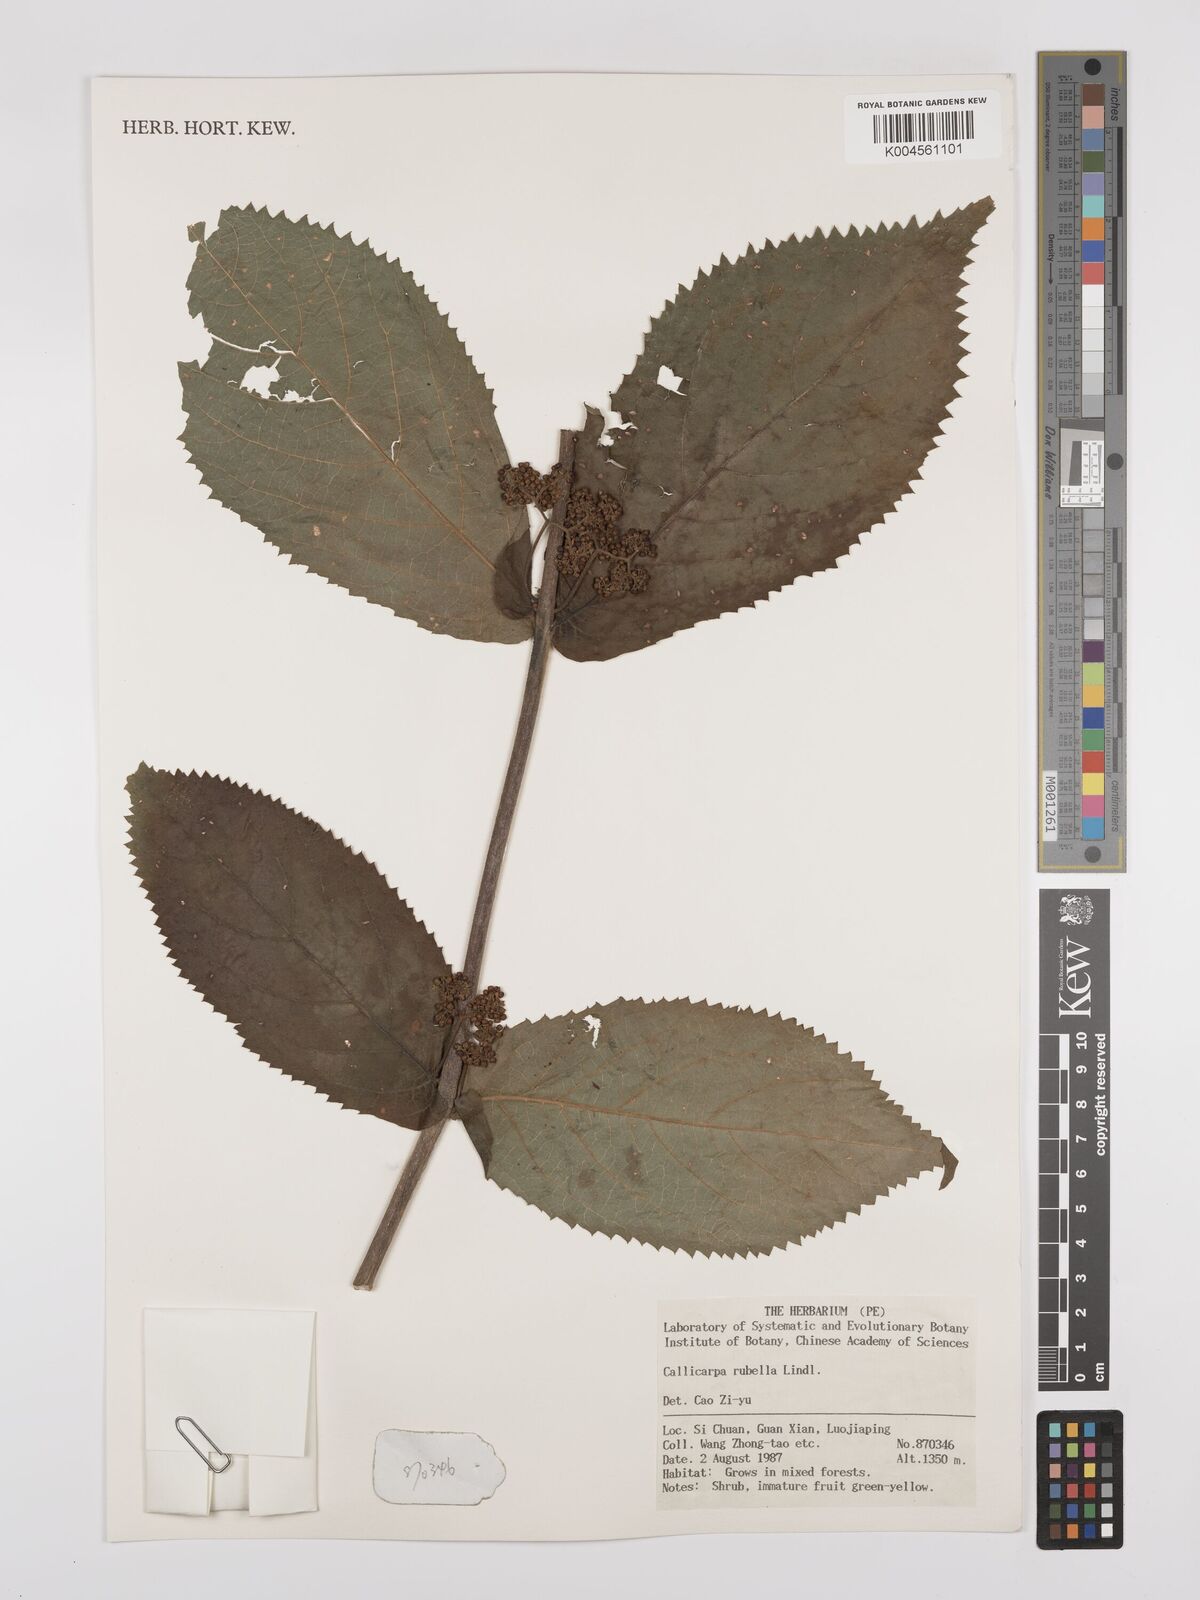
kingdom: Plantae
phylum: Tracheophyta
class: Magnoliopsida
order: Lamiales
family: Lamiaceae
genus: Callicarpa
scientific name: Callicarpa rubella
